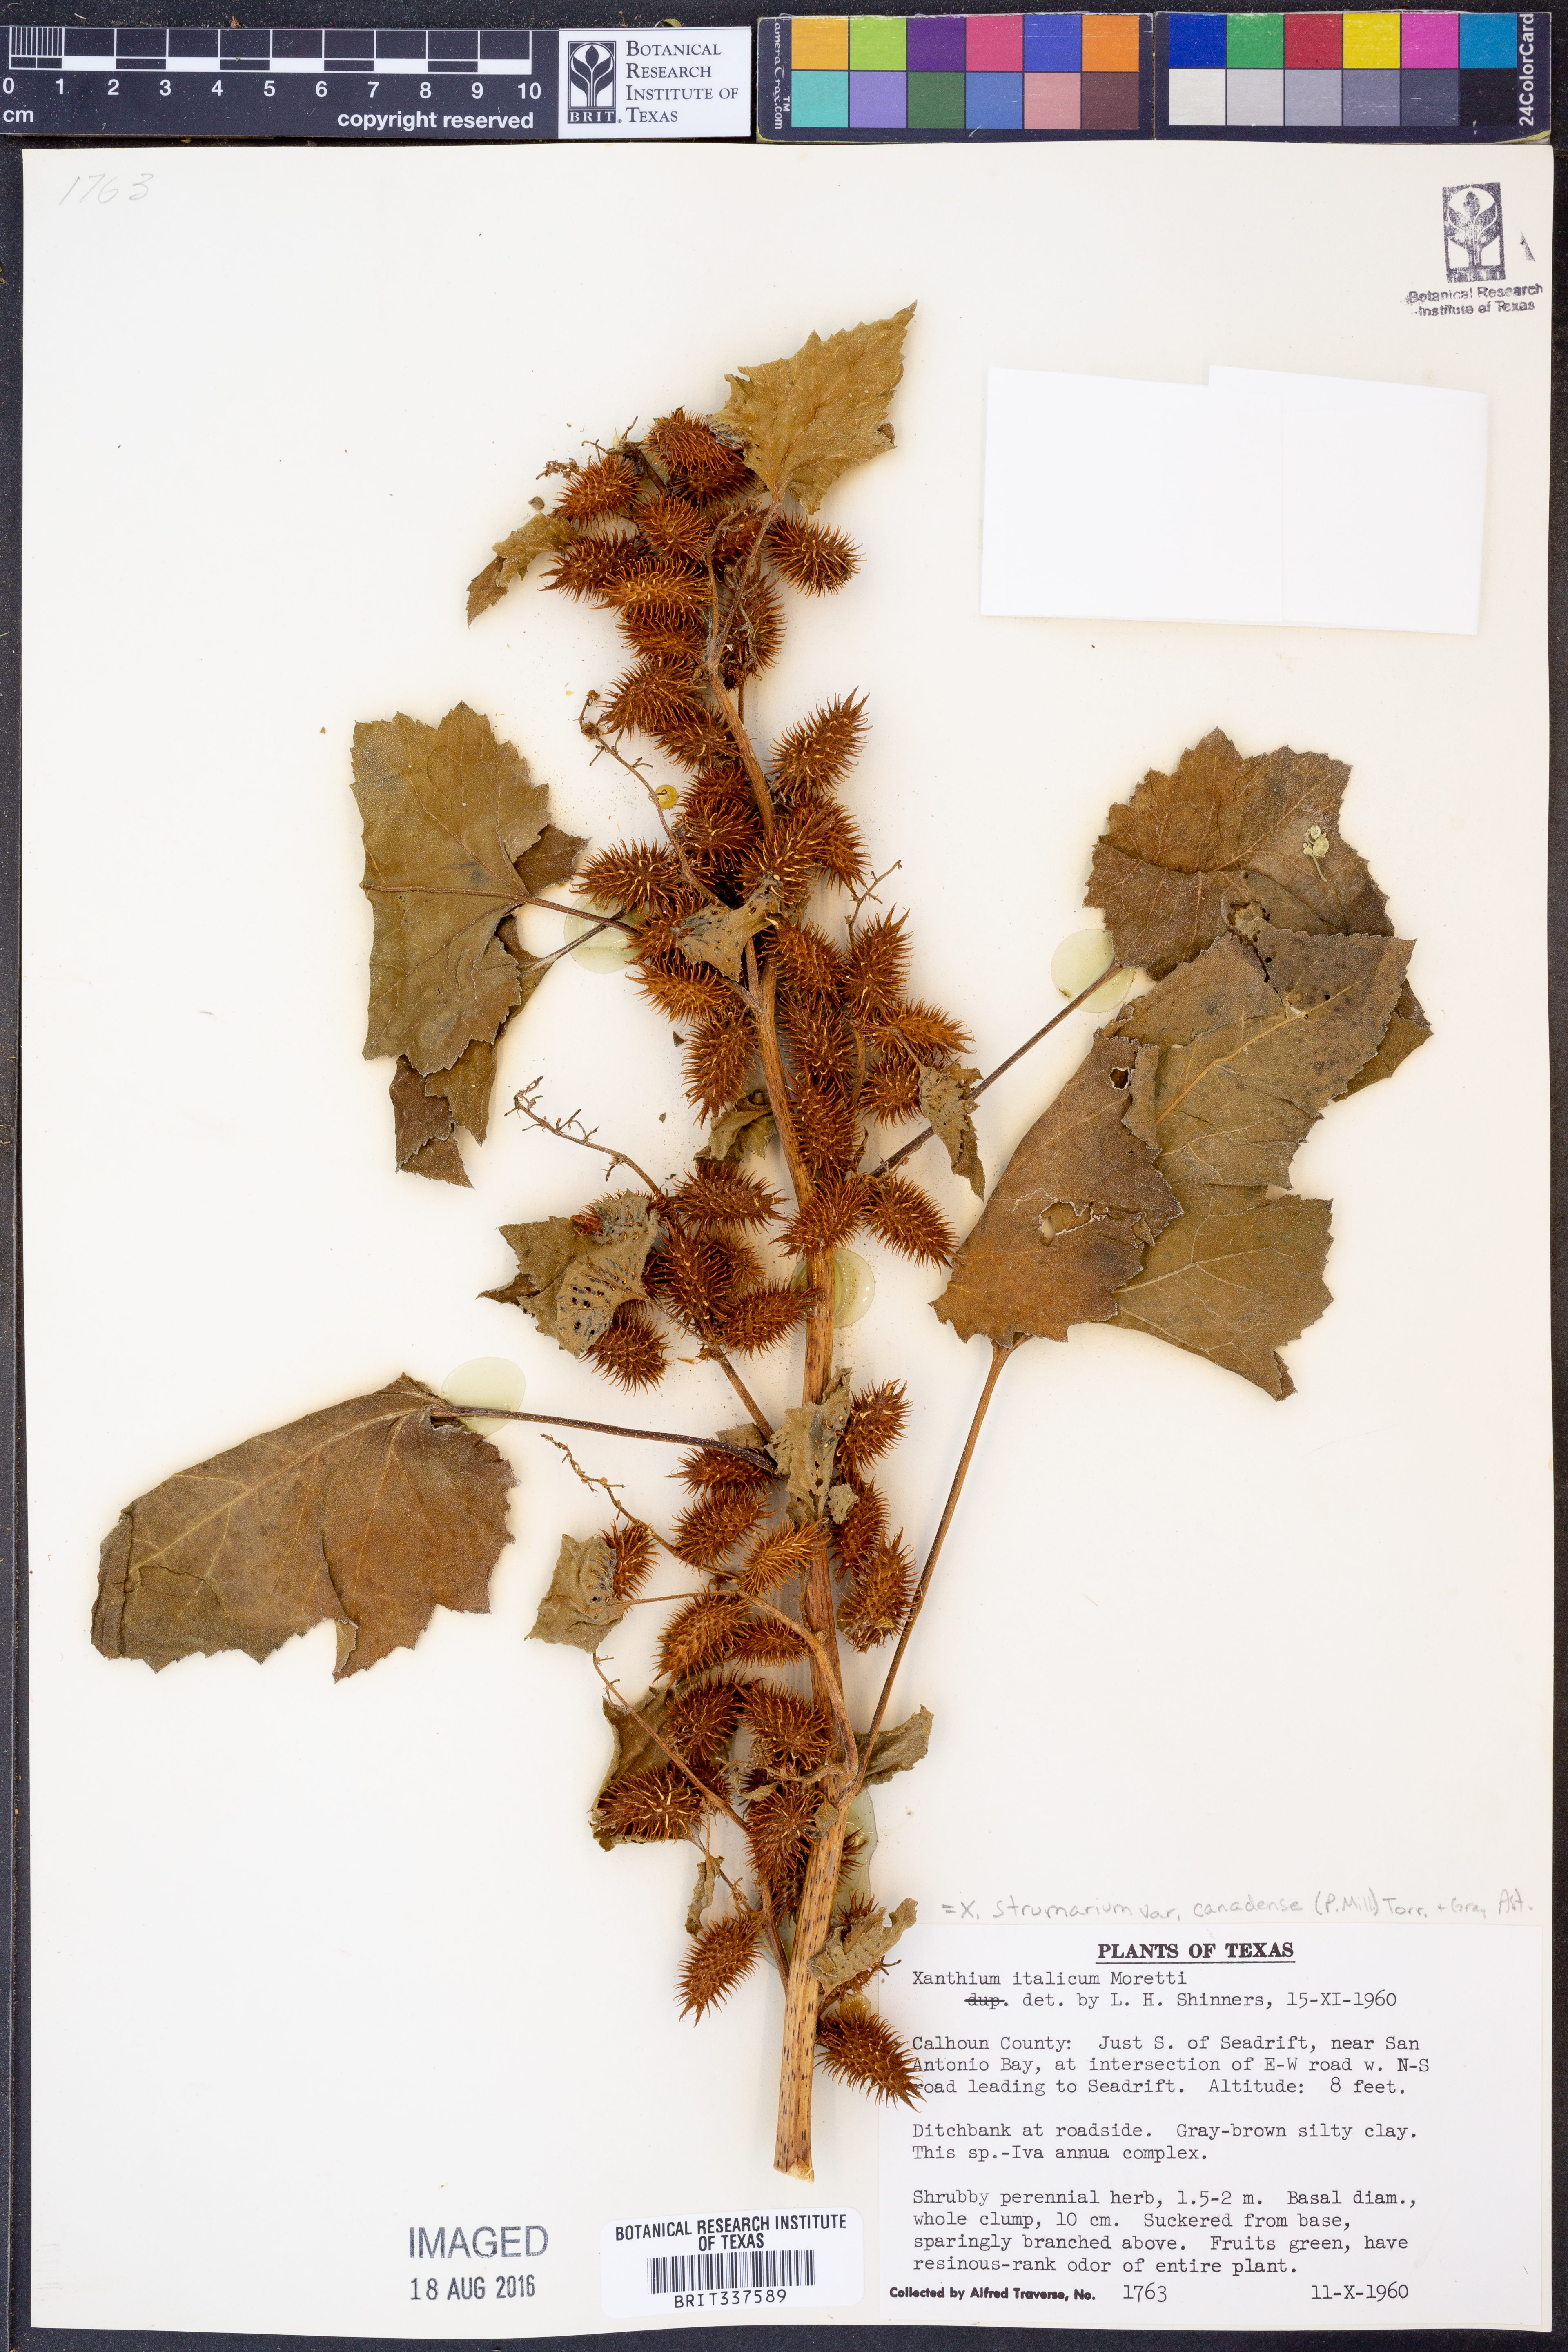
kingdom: Plantae
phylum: Tracheophyta
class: Magnoliopsida
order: Asterales
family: Asteraceae
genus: Xanthium
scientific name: Xanthium orientale
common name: Californian burr
